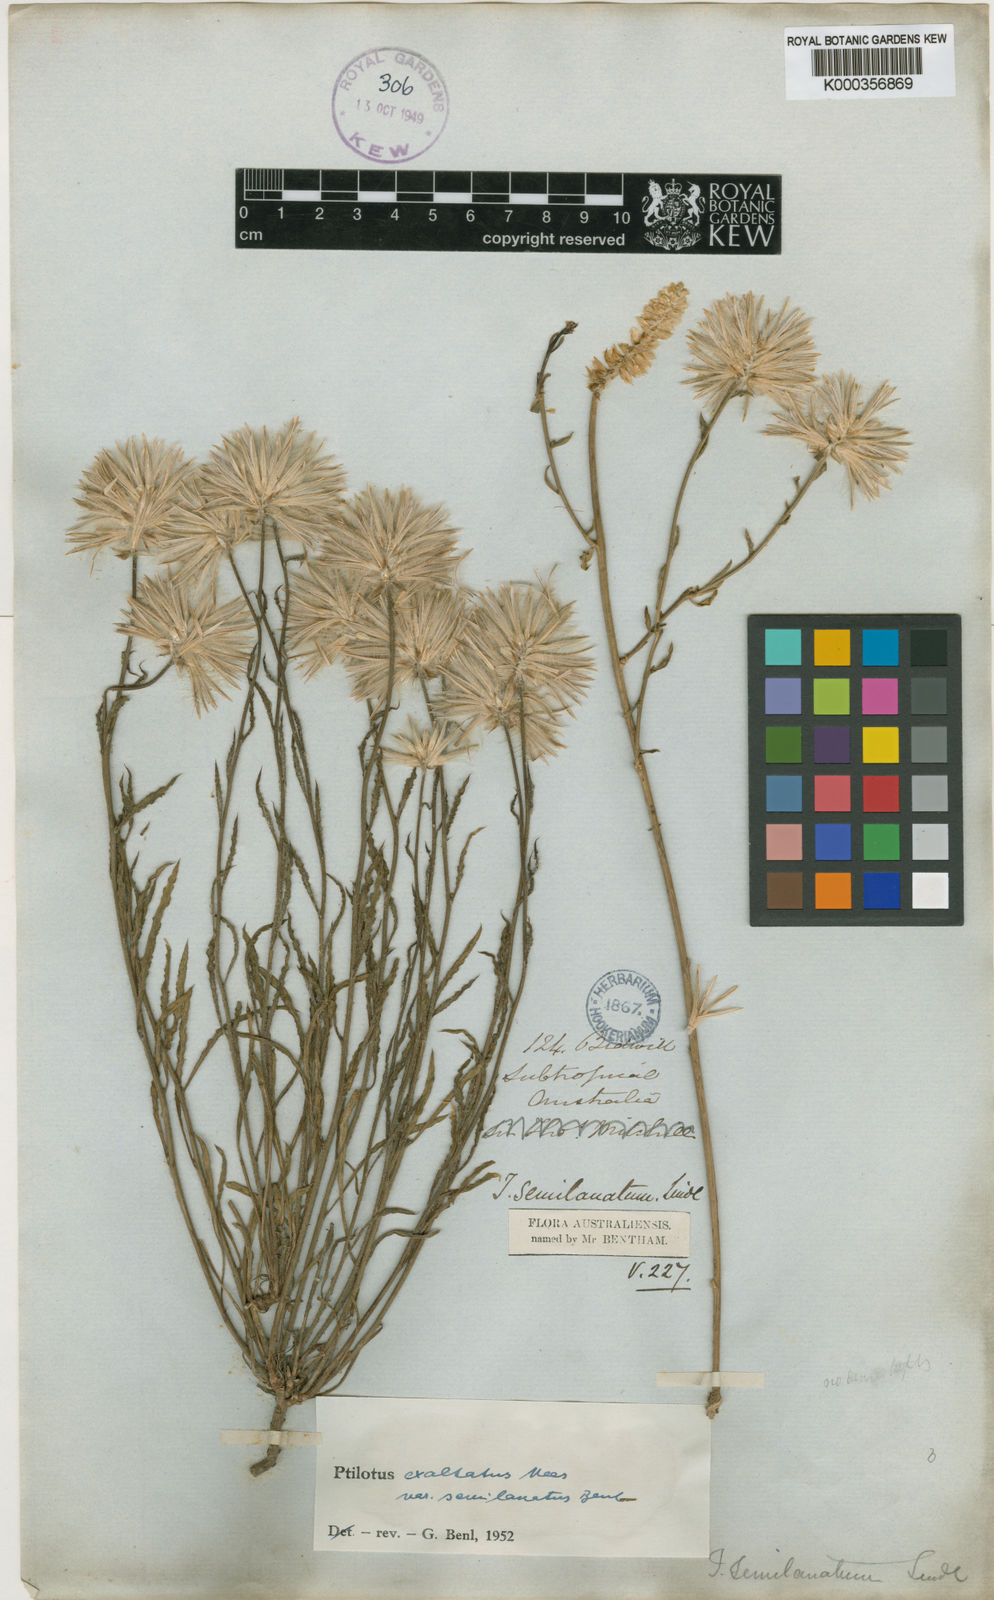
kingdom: Plantae
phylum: Tracheophyta
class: Magnoliopsida
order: Caryophyllales
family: Amaranthaceae
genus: Ptilotus
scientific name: Ptilotus semilanatus
